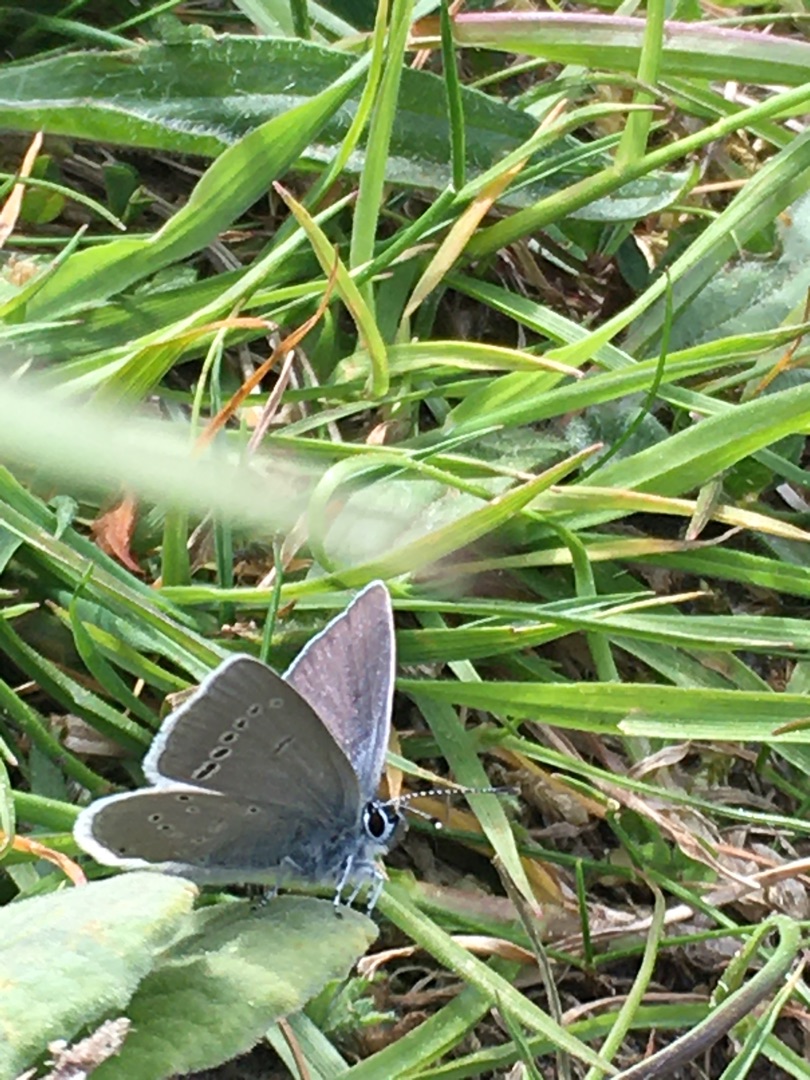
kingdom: Animalia
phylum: Arthropoda
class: Insecta
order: Lepidoptera
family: Lycaenidae
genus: Cupido
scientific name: Cupido minimus
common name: Dværgblåfugl
